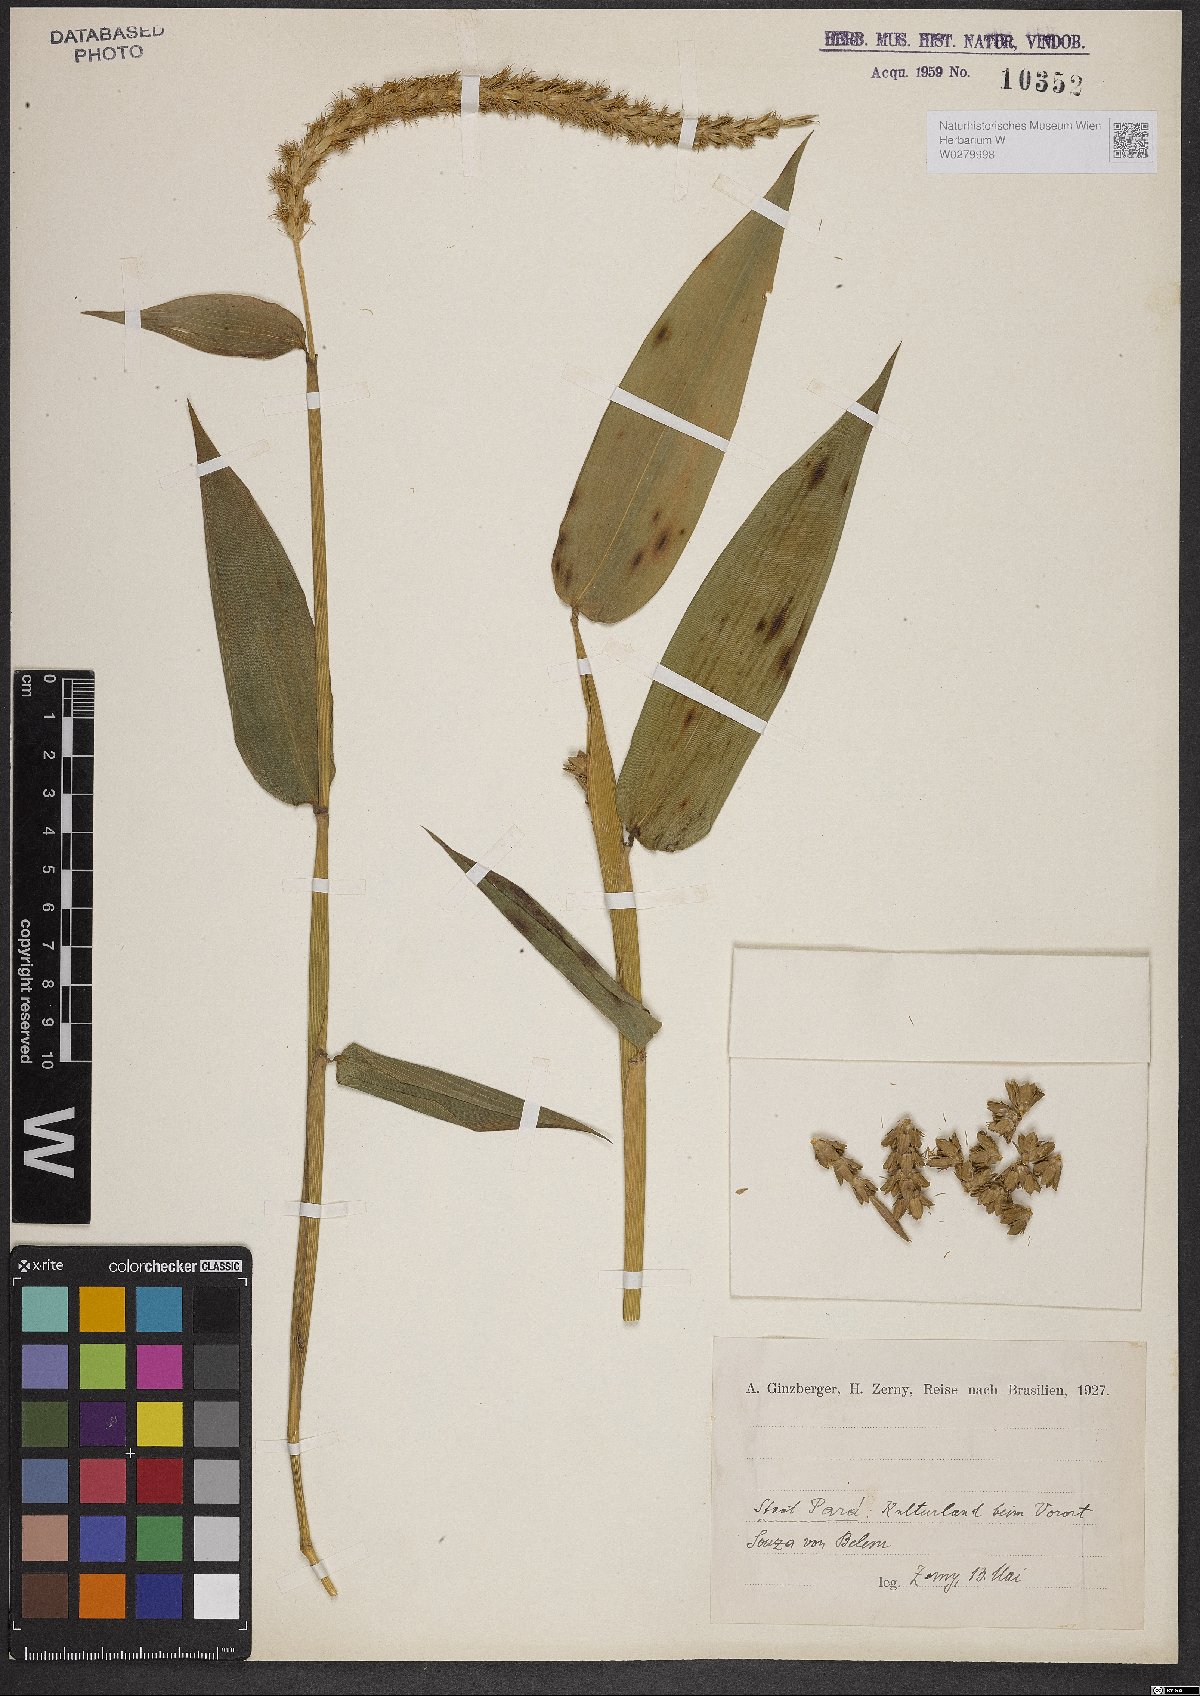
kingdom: Plantae
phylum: Tracheophyta
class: Liliopsida
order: Poales
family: Poaceae
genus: Bambusa
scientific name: Bambusa
